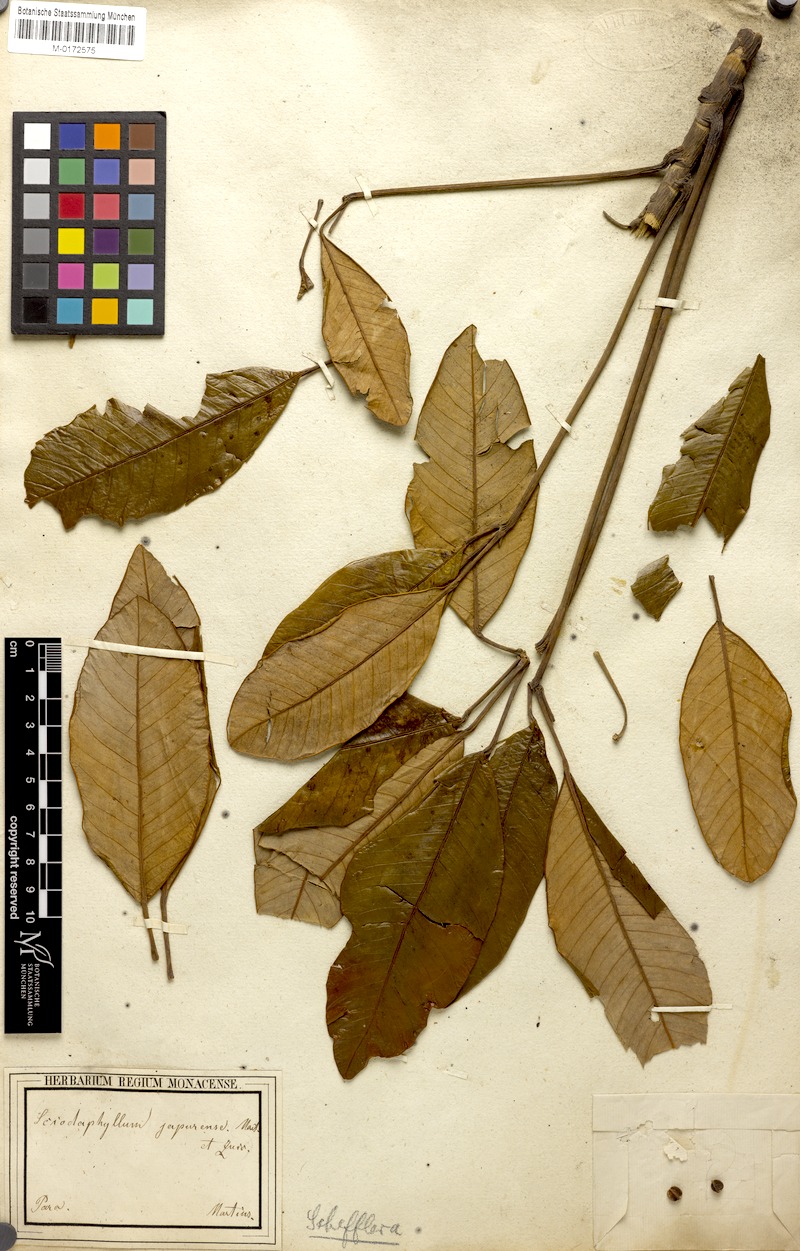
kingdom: Plantae
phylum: Tracheophyta
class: Magnoliopsida
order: Apiales
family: Araliaceae
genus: Crepinella
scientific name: Crepinella japurensis
